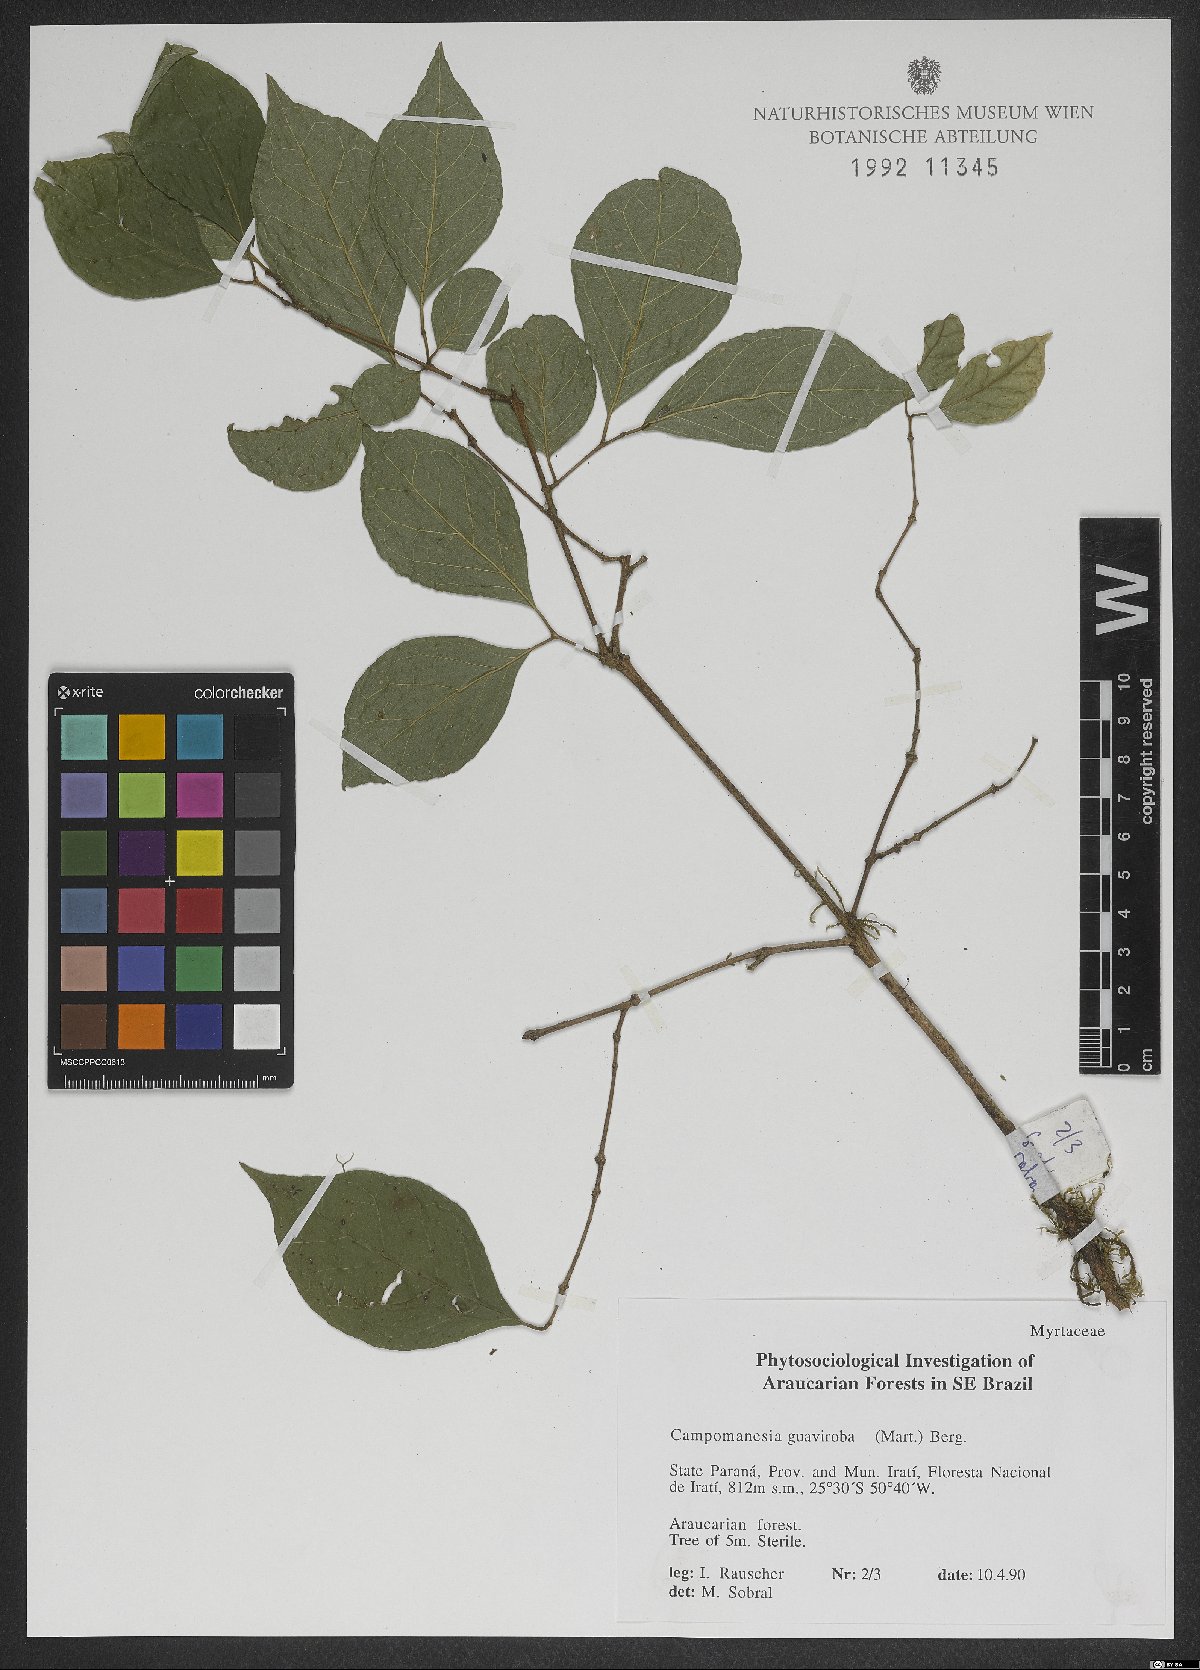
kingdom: Plantae
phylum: Tracheophyta
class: Magnoliopsida
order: Myrtales
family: Myrtaceae
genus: Campomanesia
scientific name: Campomanesia guaviroba
